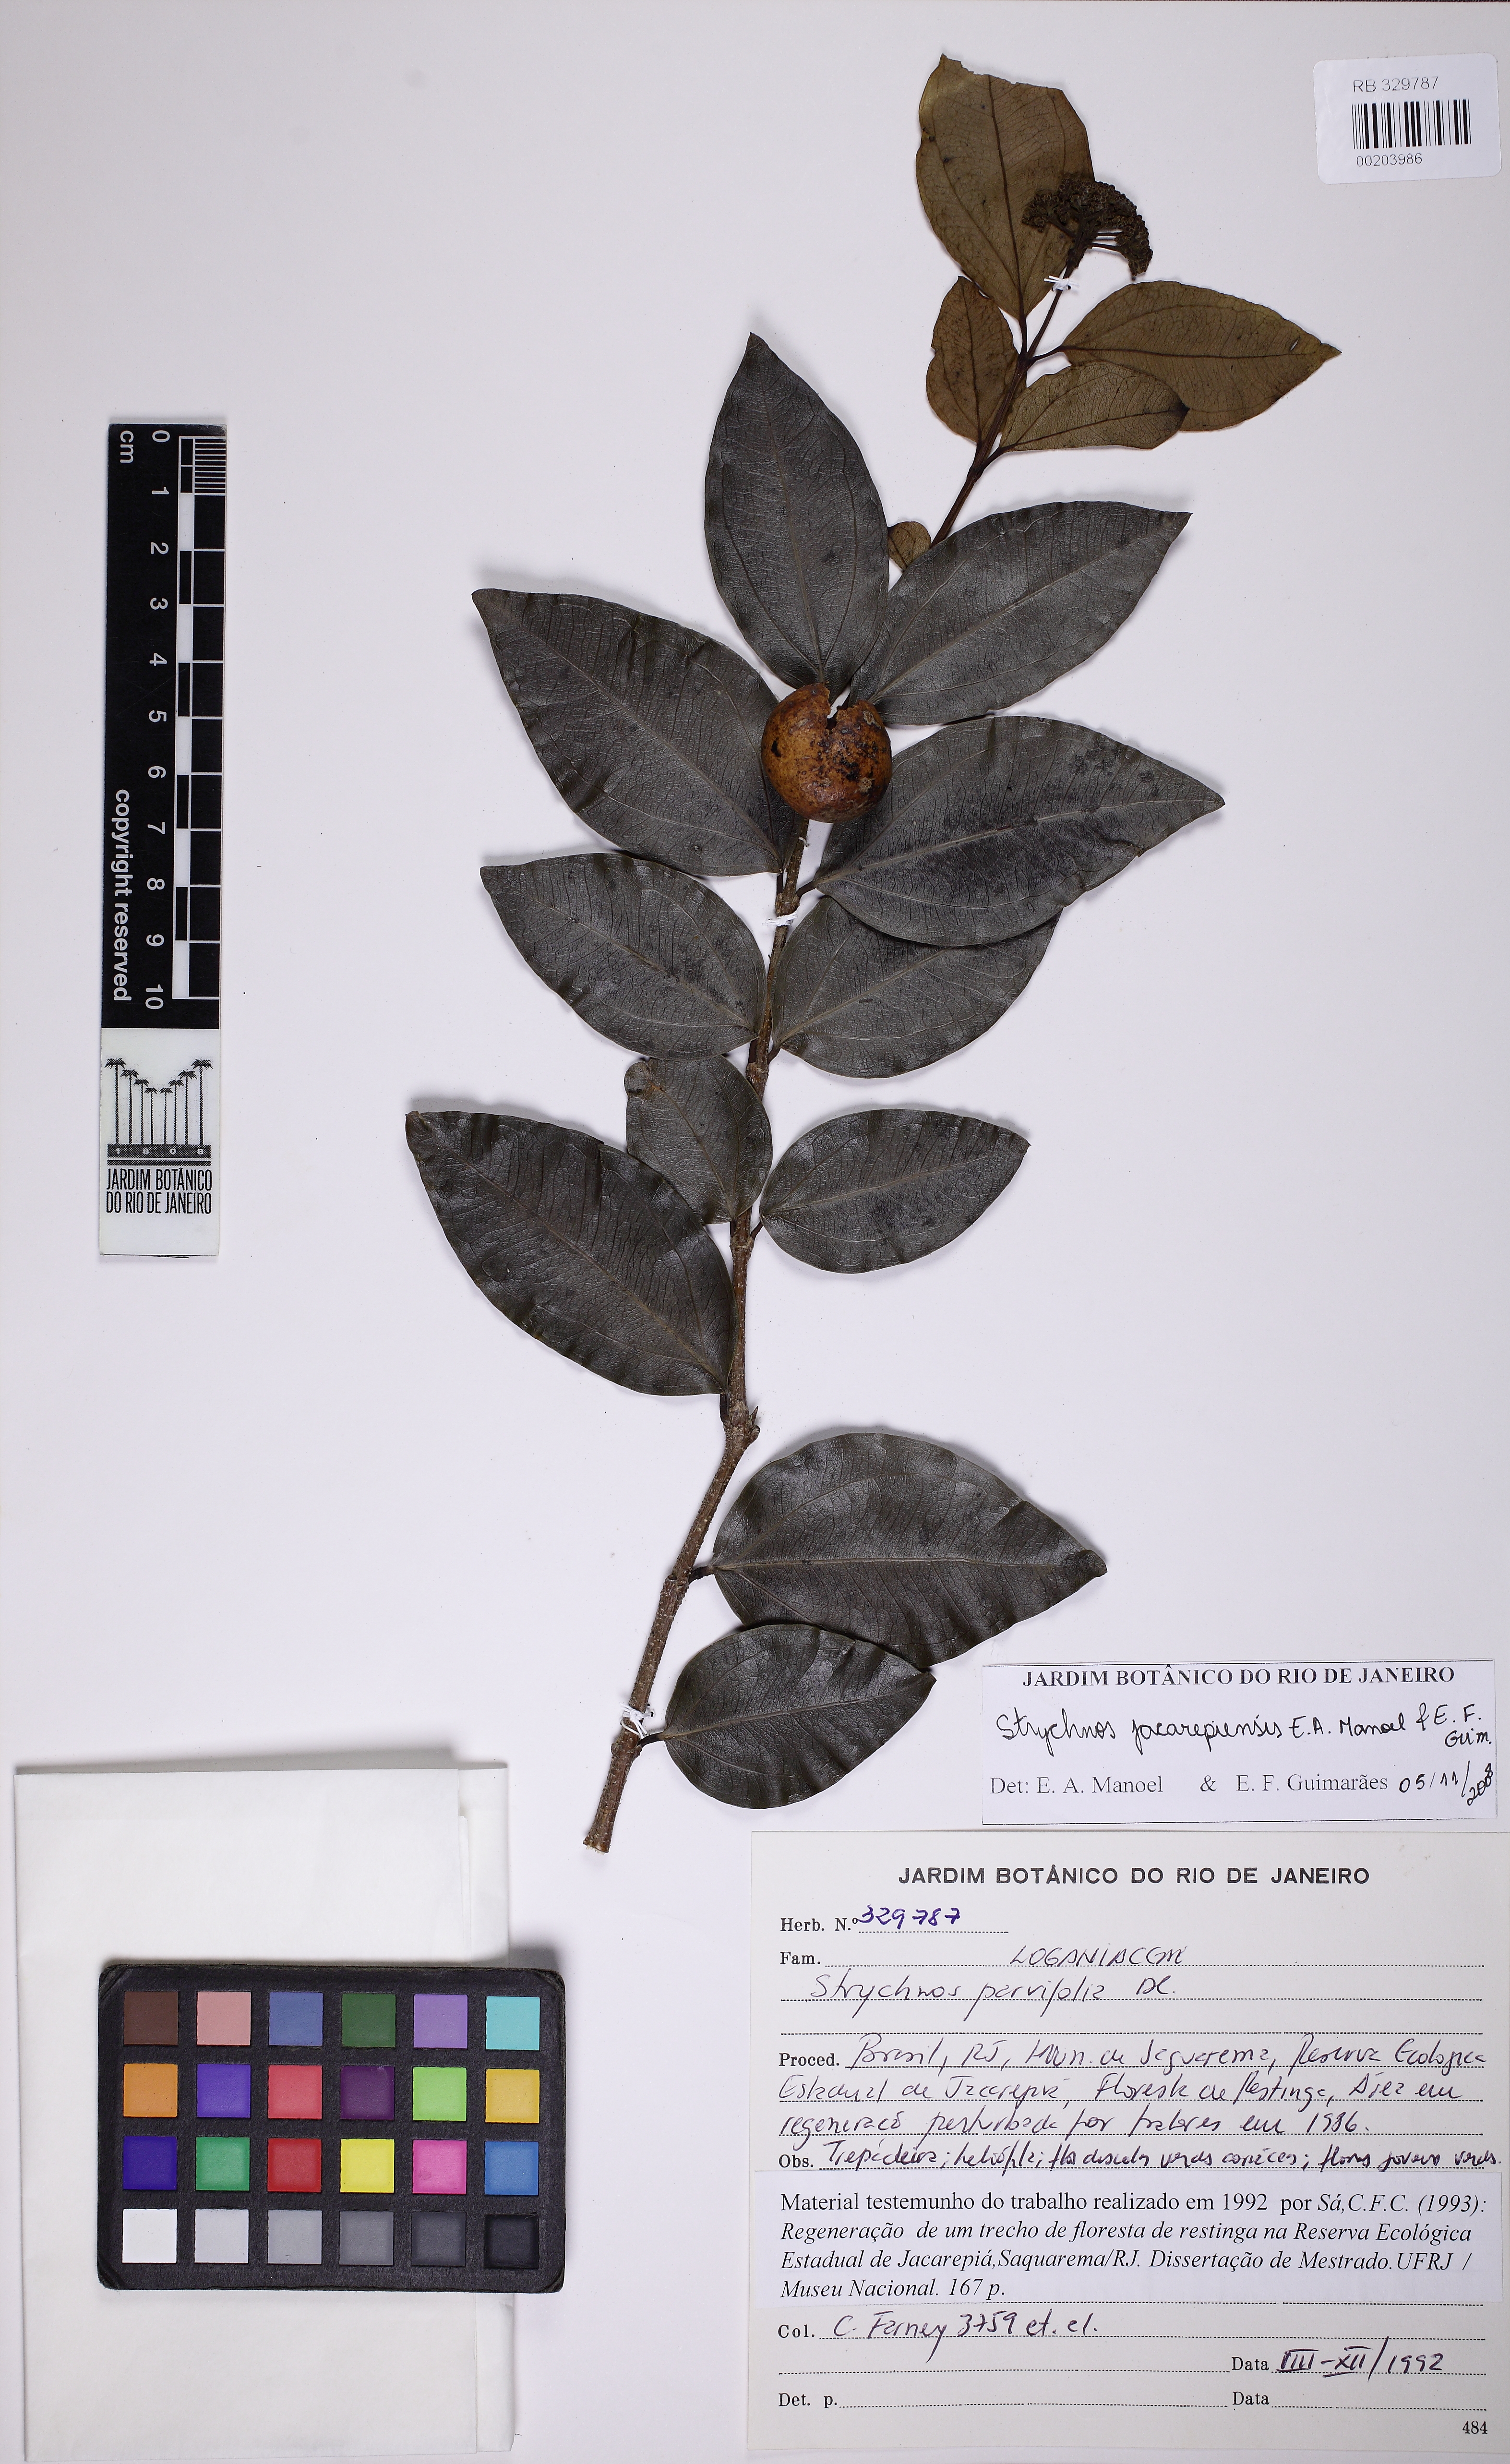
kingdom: Plantae
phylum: Tracheophyta
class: Magnoliopsida
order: Gentianales
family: Loganiaceae
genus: Strychnos
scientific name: Strychnos jacarepiensis
